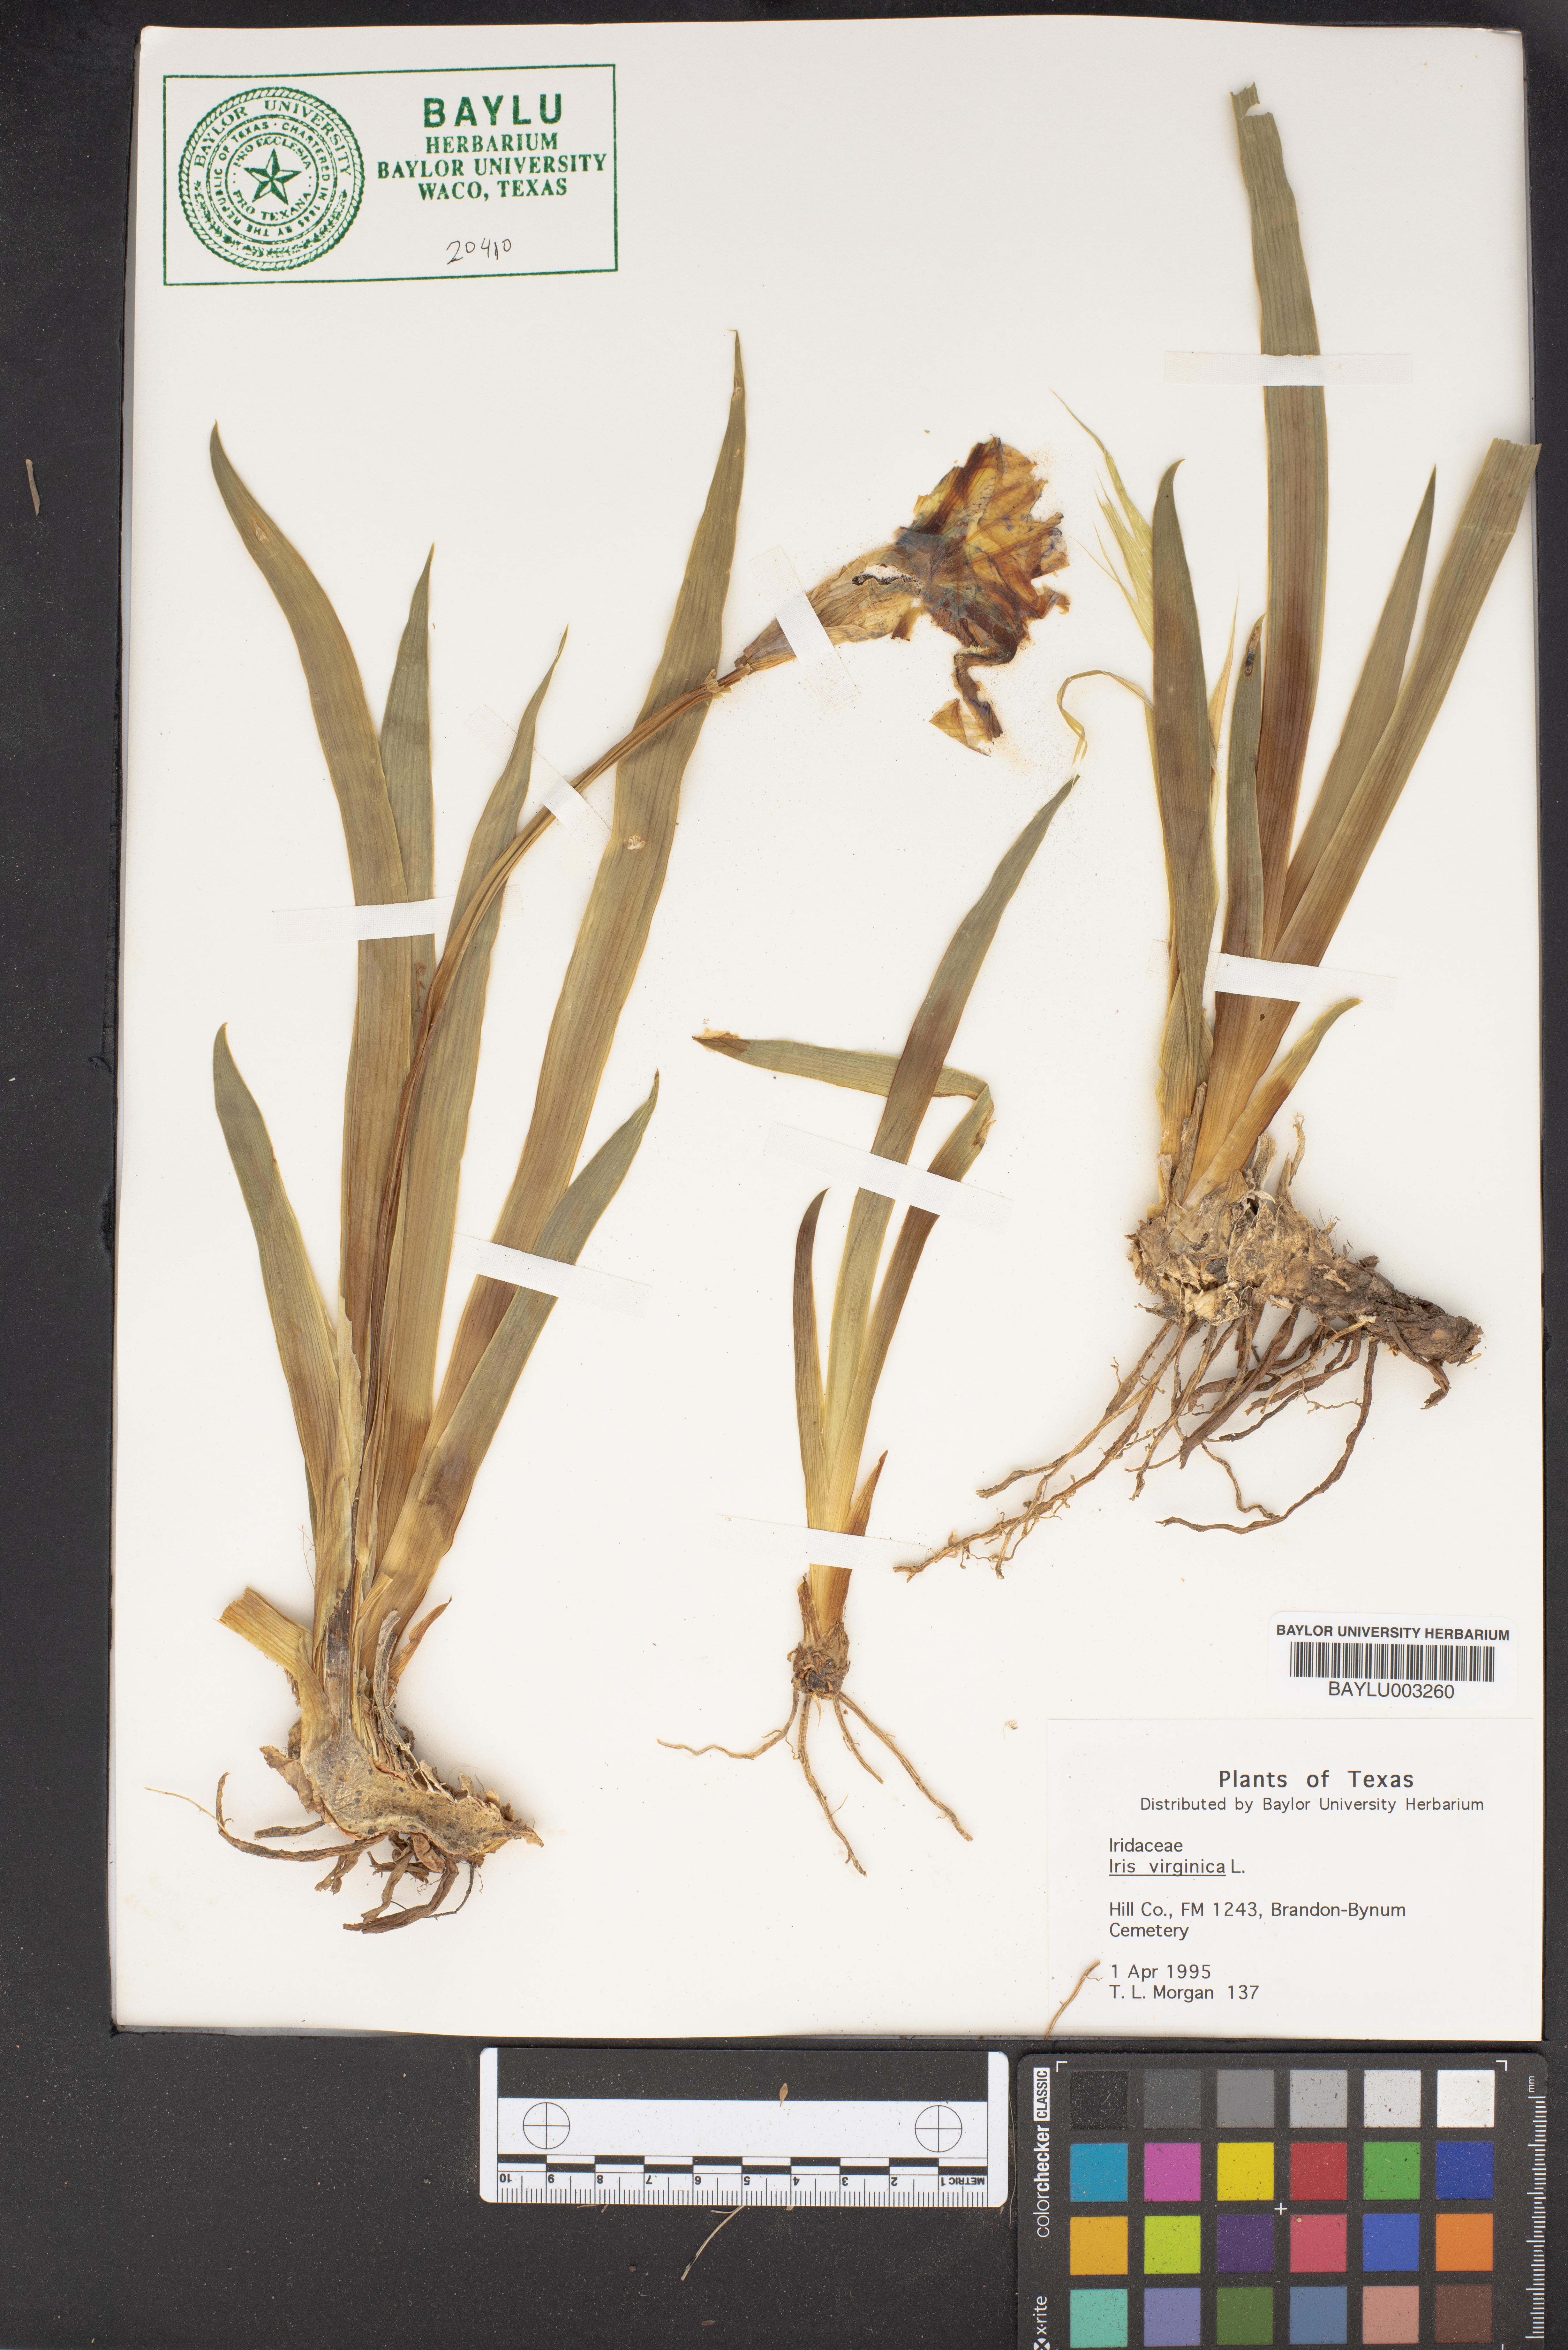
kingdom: Plantae
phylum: Tracheophyta
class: Liliopsida
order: Asparagales
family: Iridaceae
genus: Iris
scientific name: Iris virginica
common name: Southern blue flag
